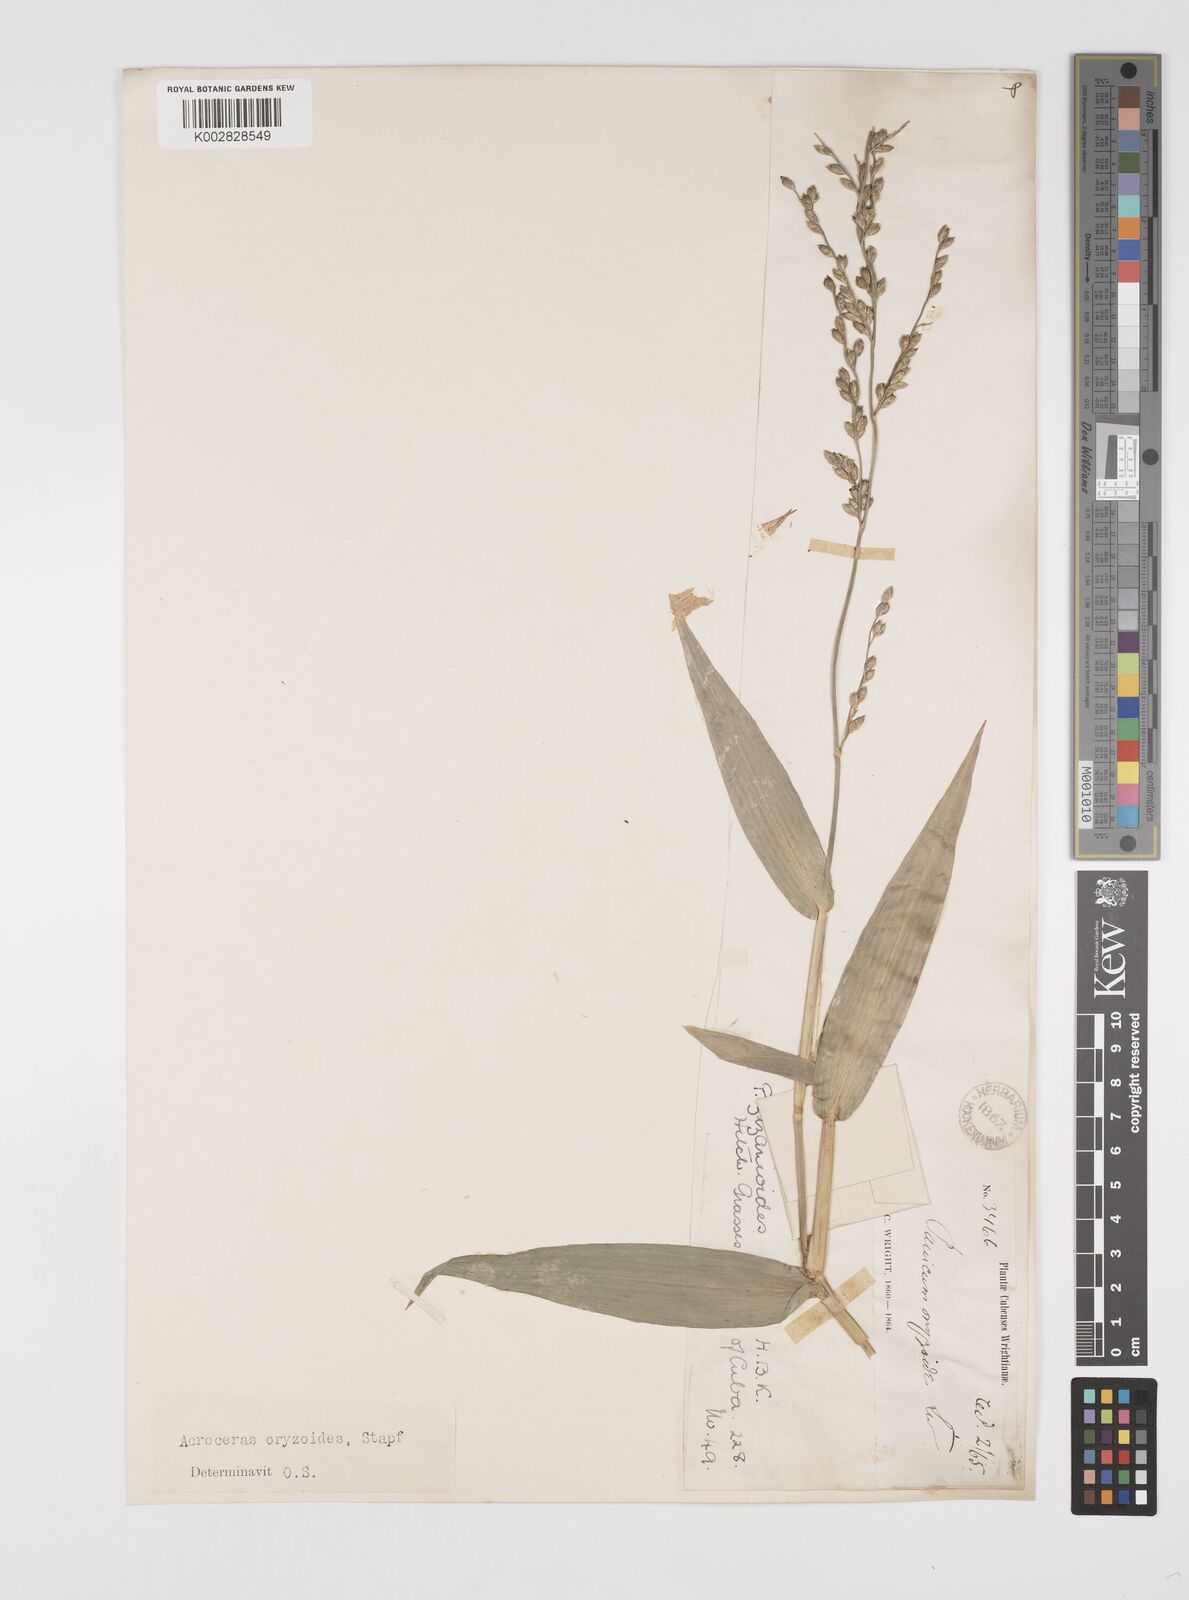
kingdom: Plantae
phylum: Tracheophyta
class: Liliopsida
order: Poales
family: Poaceae
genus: Acroceras
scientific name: Acroceras zizanioides
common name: Oat grass
